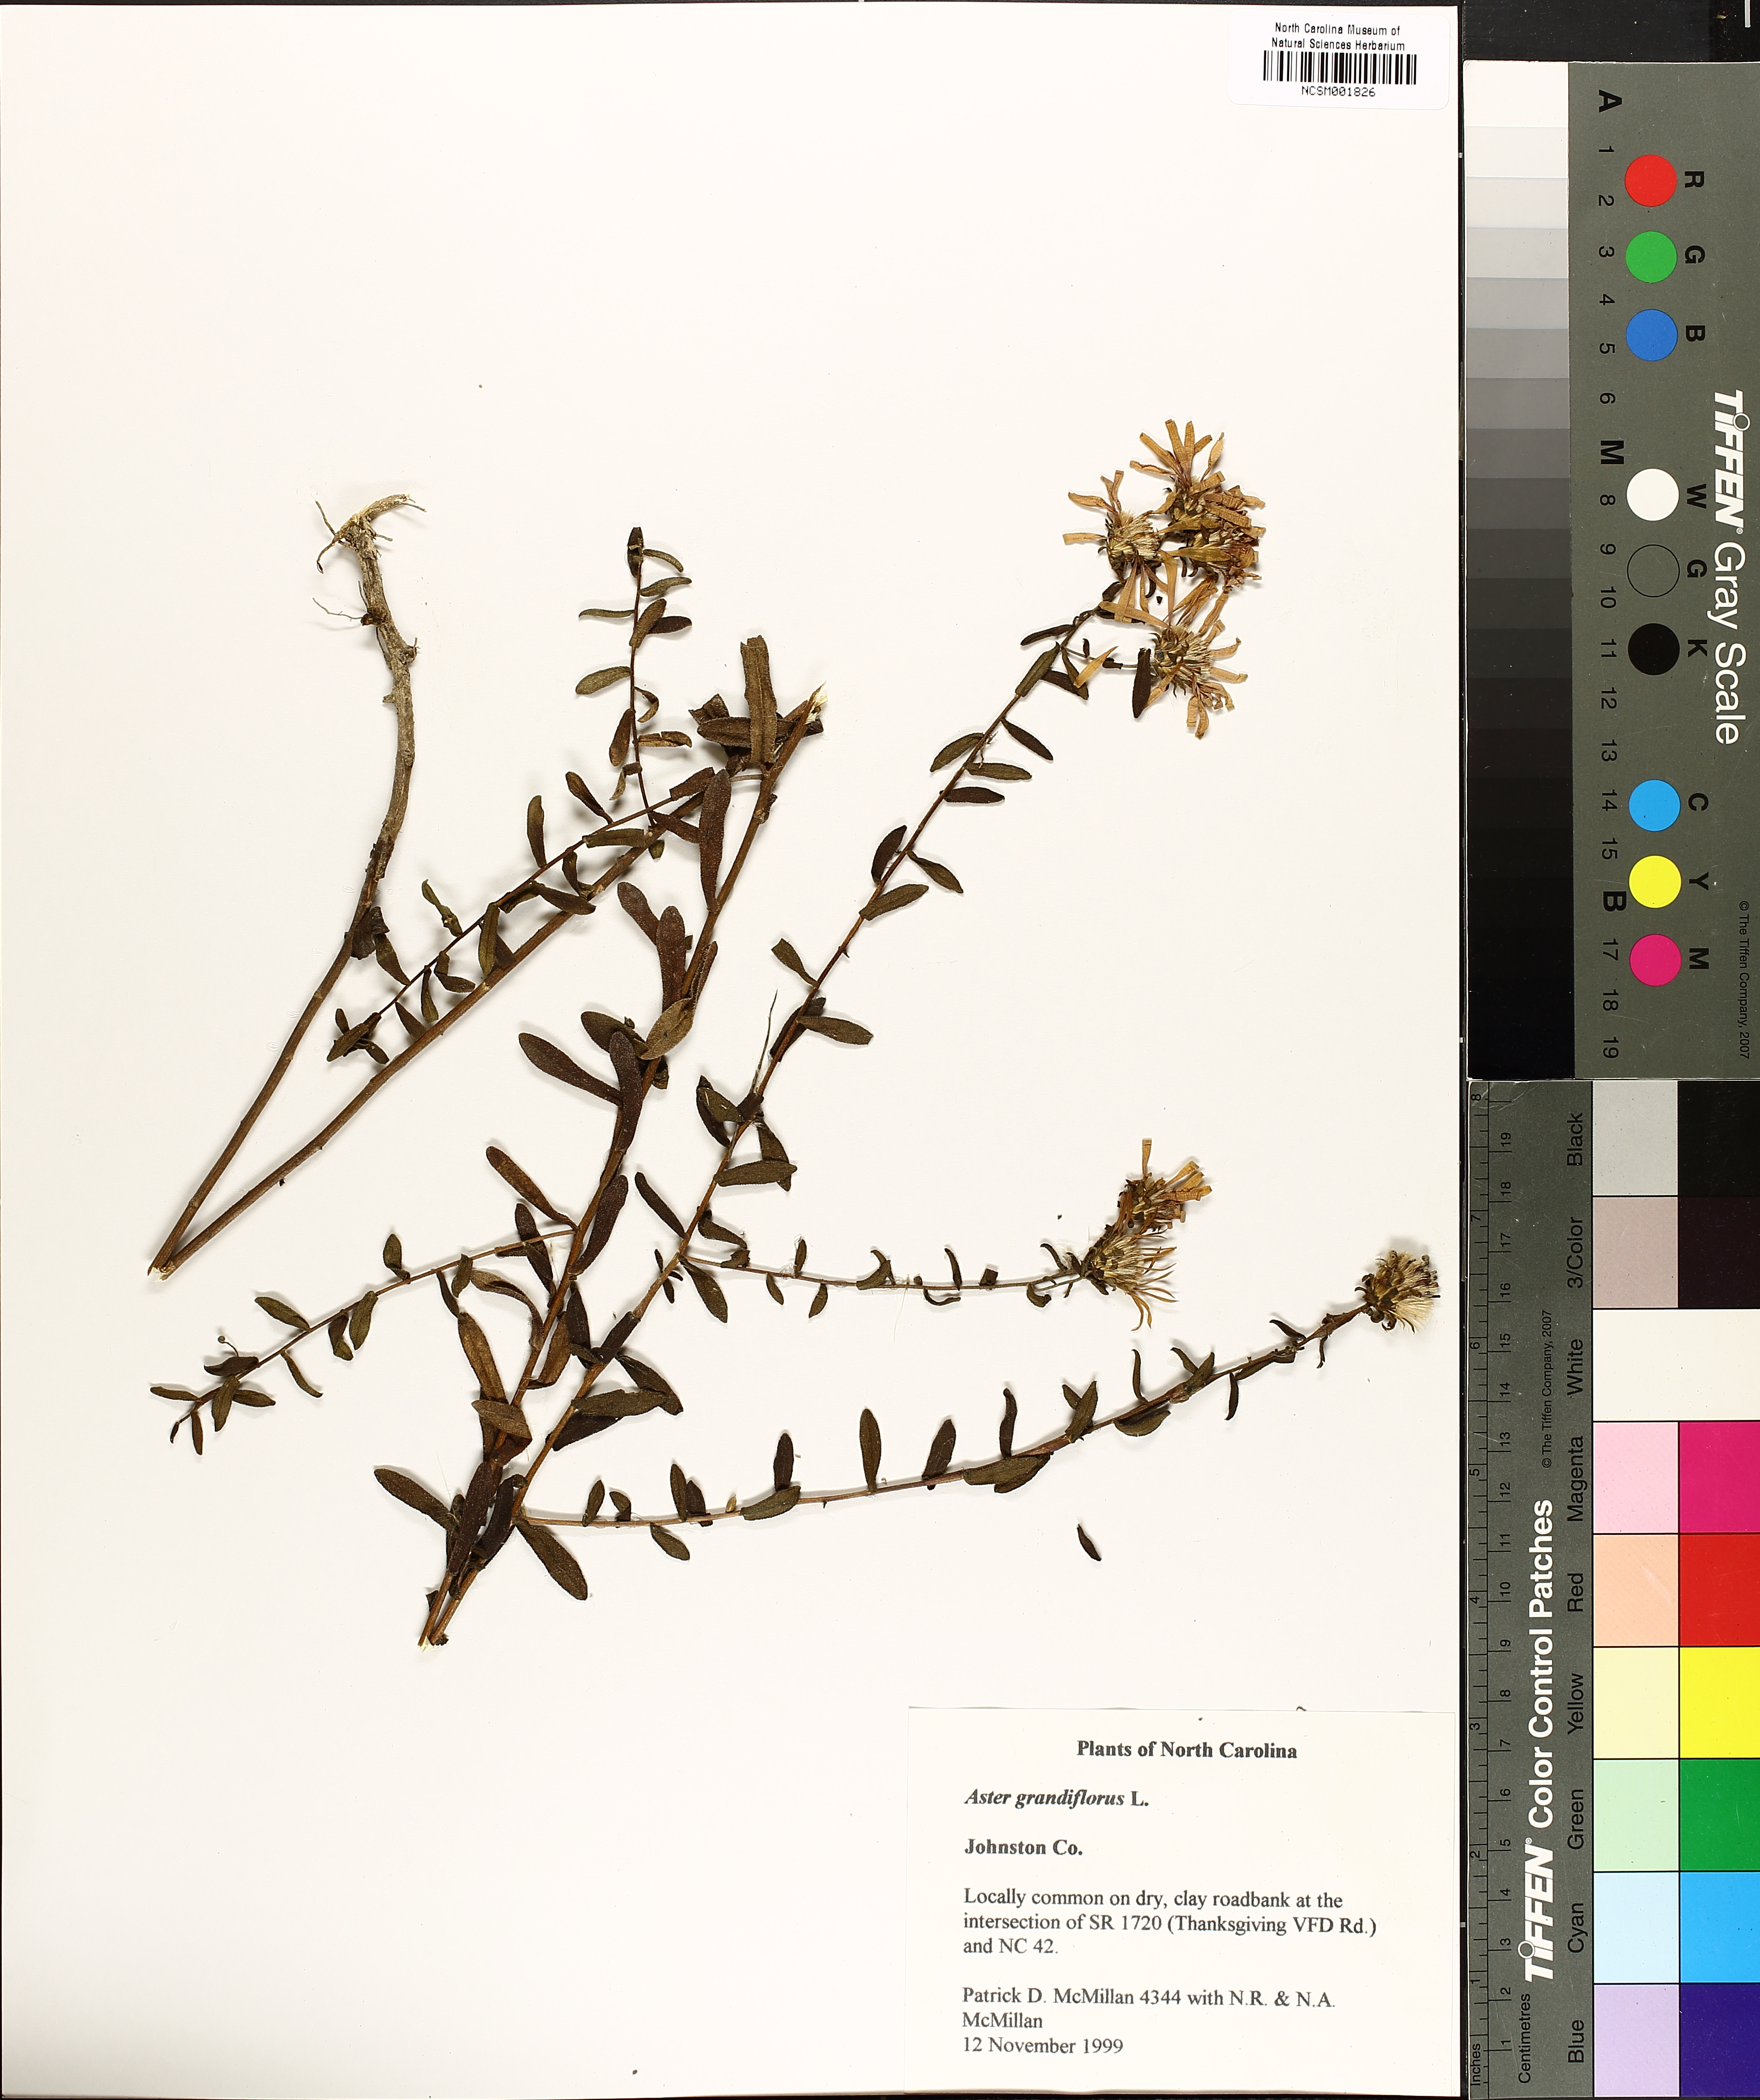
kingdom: Plantae
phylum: Tracheophyta
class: Magnoliopsida
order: Asterales
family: Asteraceae
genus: Symphyotrichum
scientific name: Symphyotrichum grandiflorum
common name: Big-head aster
